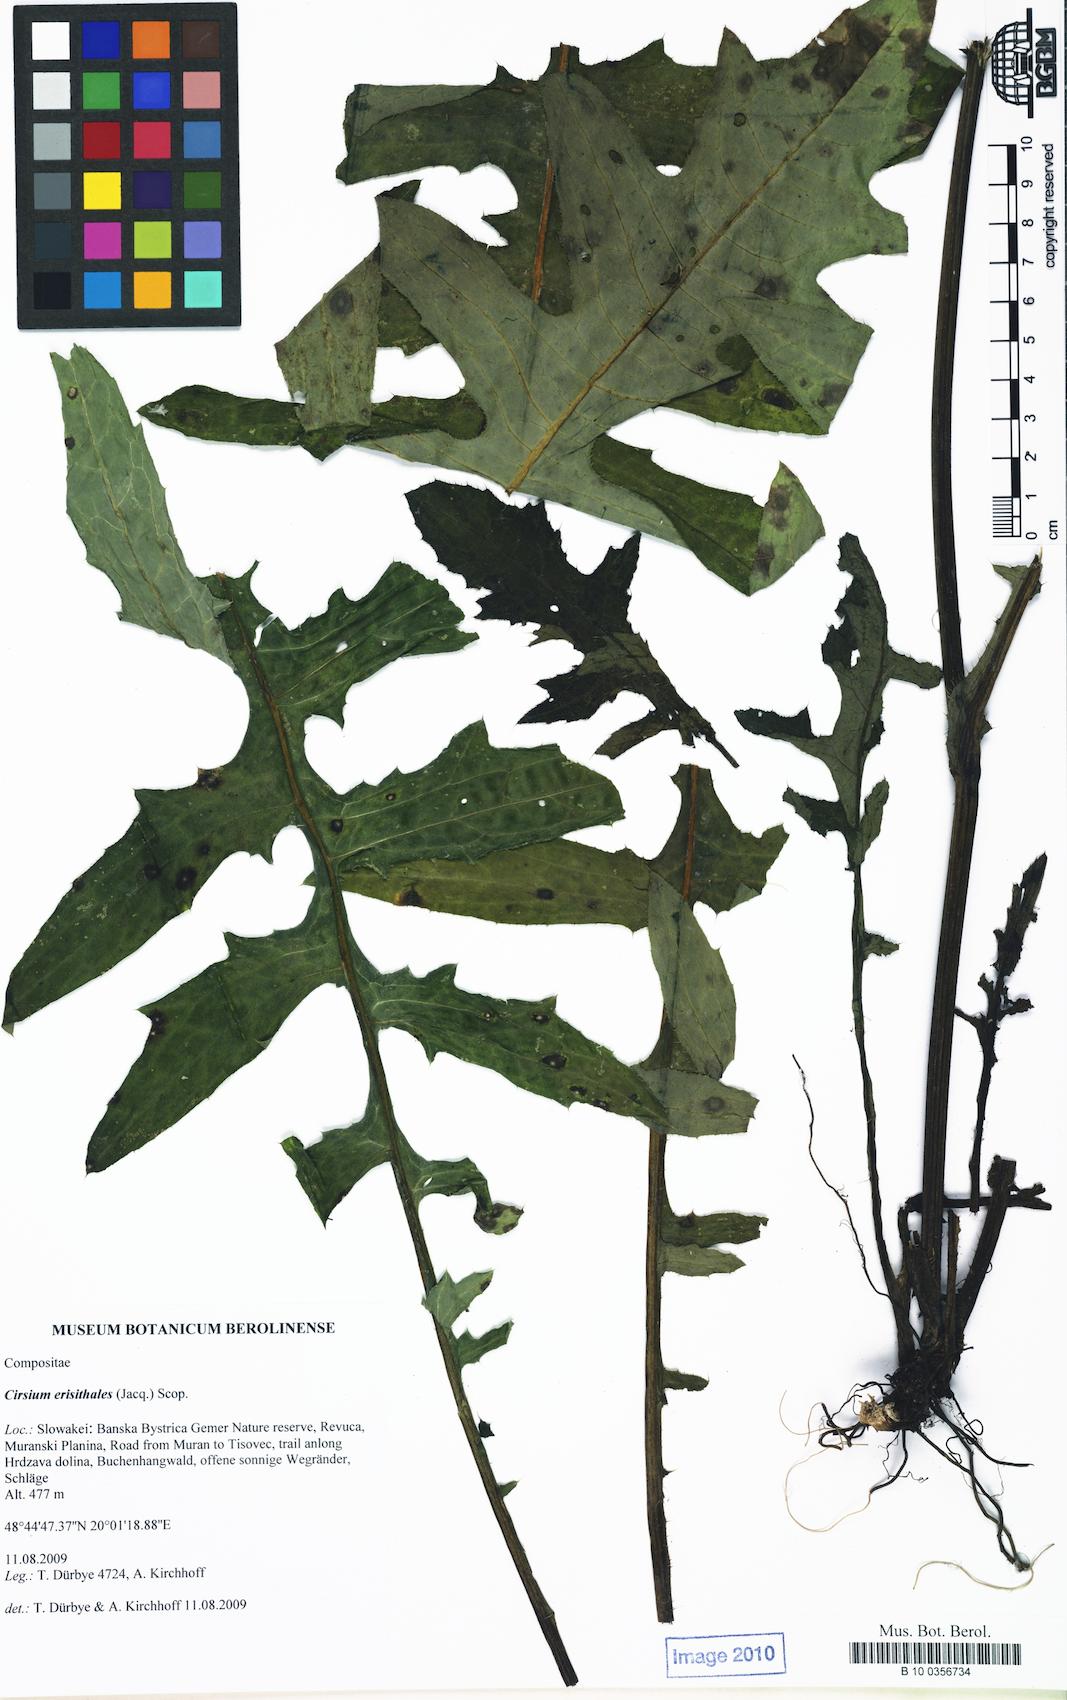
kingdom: Plantae
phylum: Tracheophyta
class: Magnoliopsida
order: Asterales
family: Asteraceae
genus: Cirsium
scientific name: Cirsium erisithales
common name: Yellow thistle
